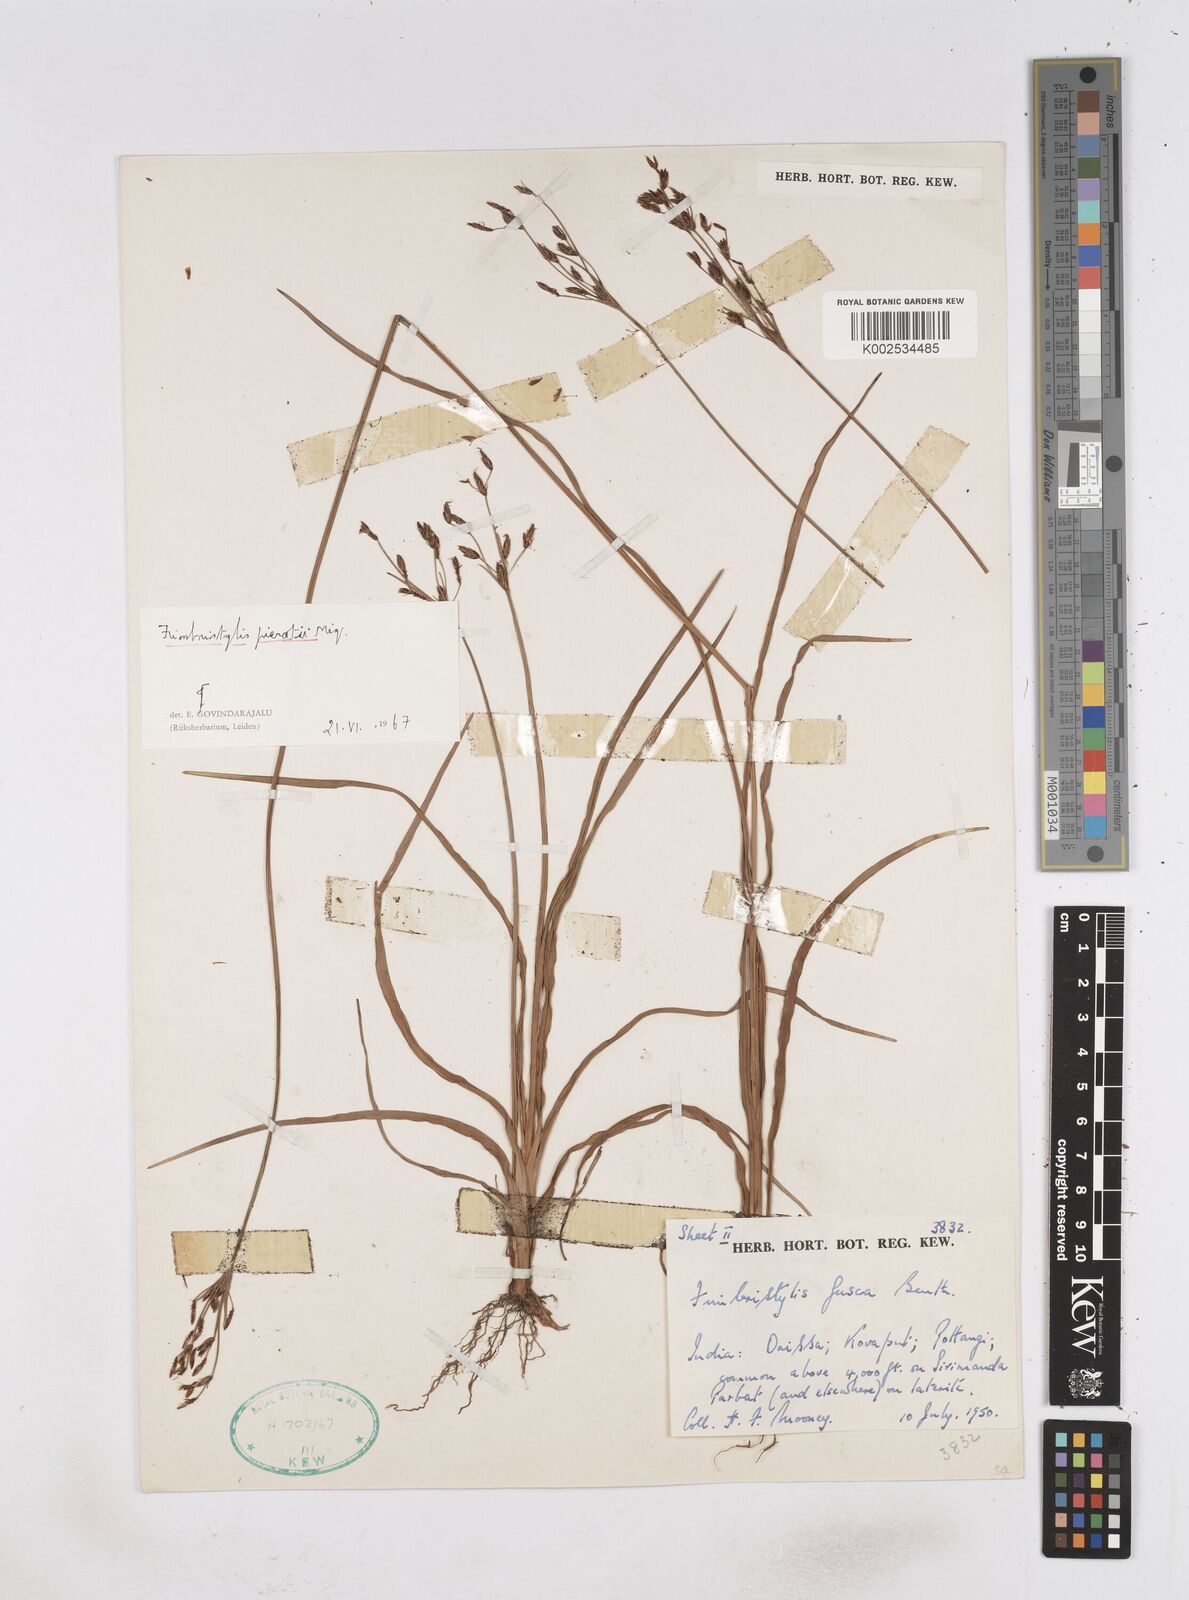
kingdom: Plantae
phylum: Tracheophyta
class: Liliopsida
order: Poales
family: Cyperaceae
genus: Fimbristylis
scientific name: Fimbristylis pierotii
